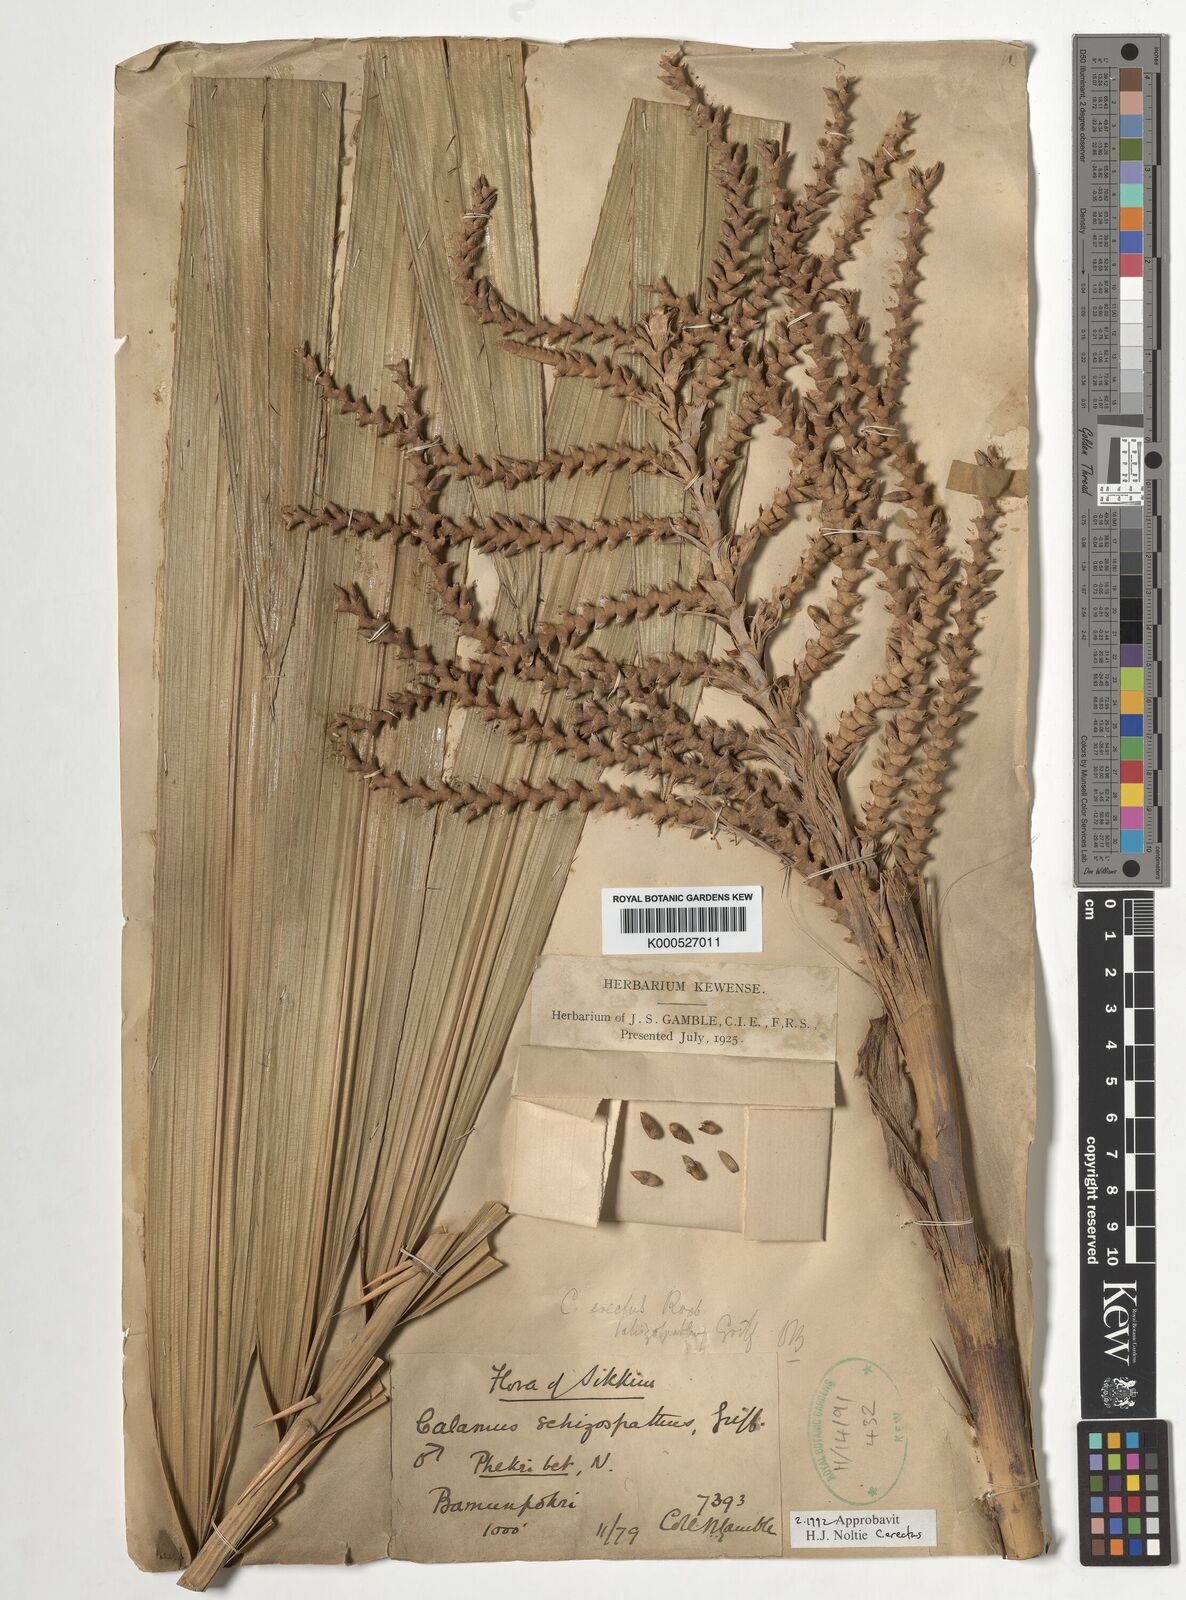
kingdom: Plantae
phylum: Tracheophyta
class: Liliopsida
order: Arecales
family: Arecaceae
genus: Calamus
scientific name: Calamus erectus
